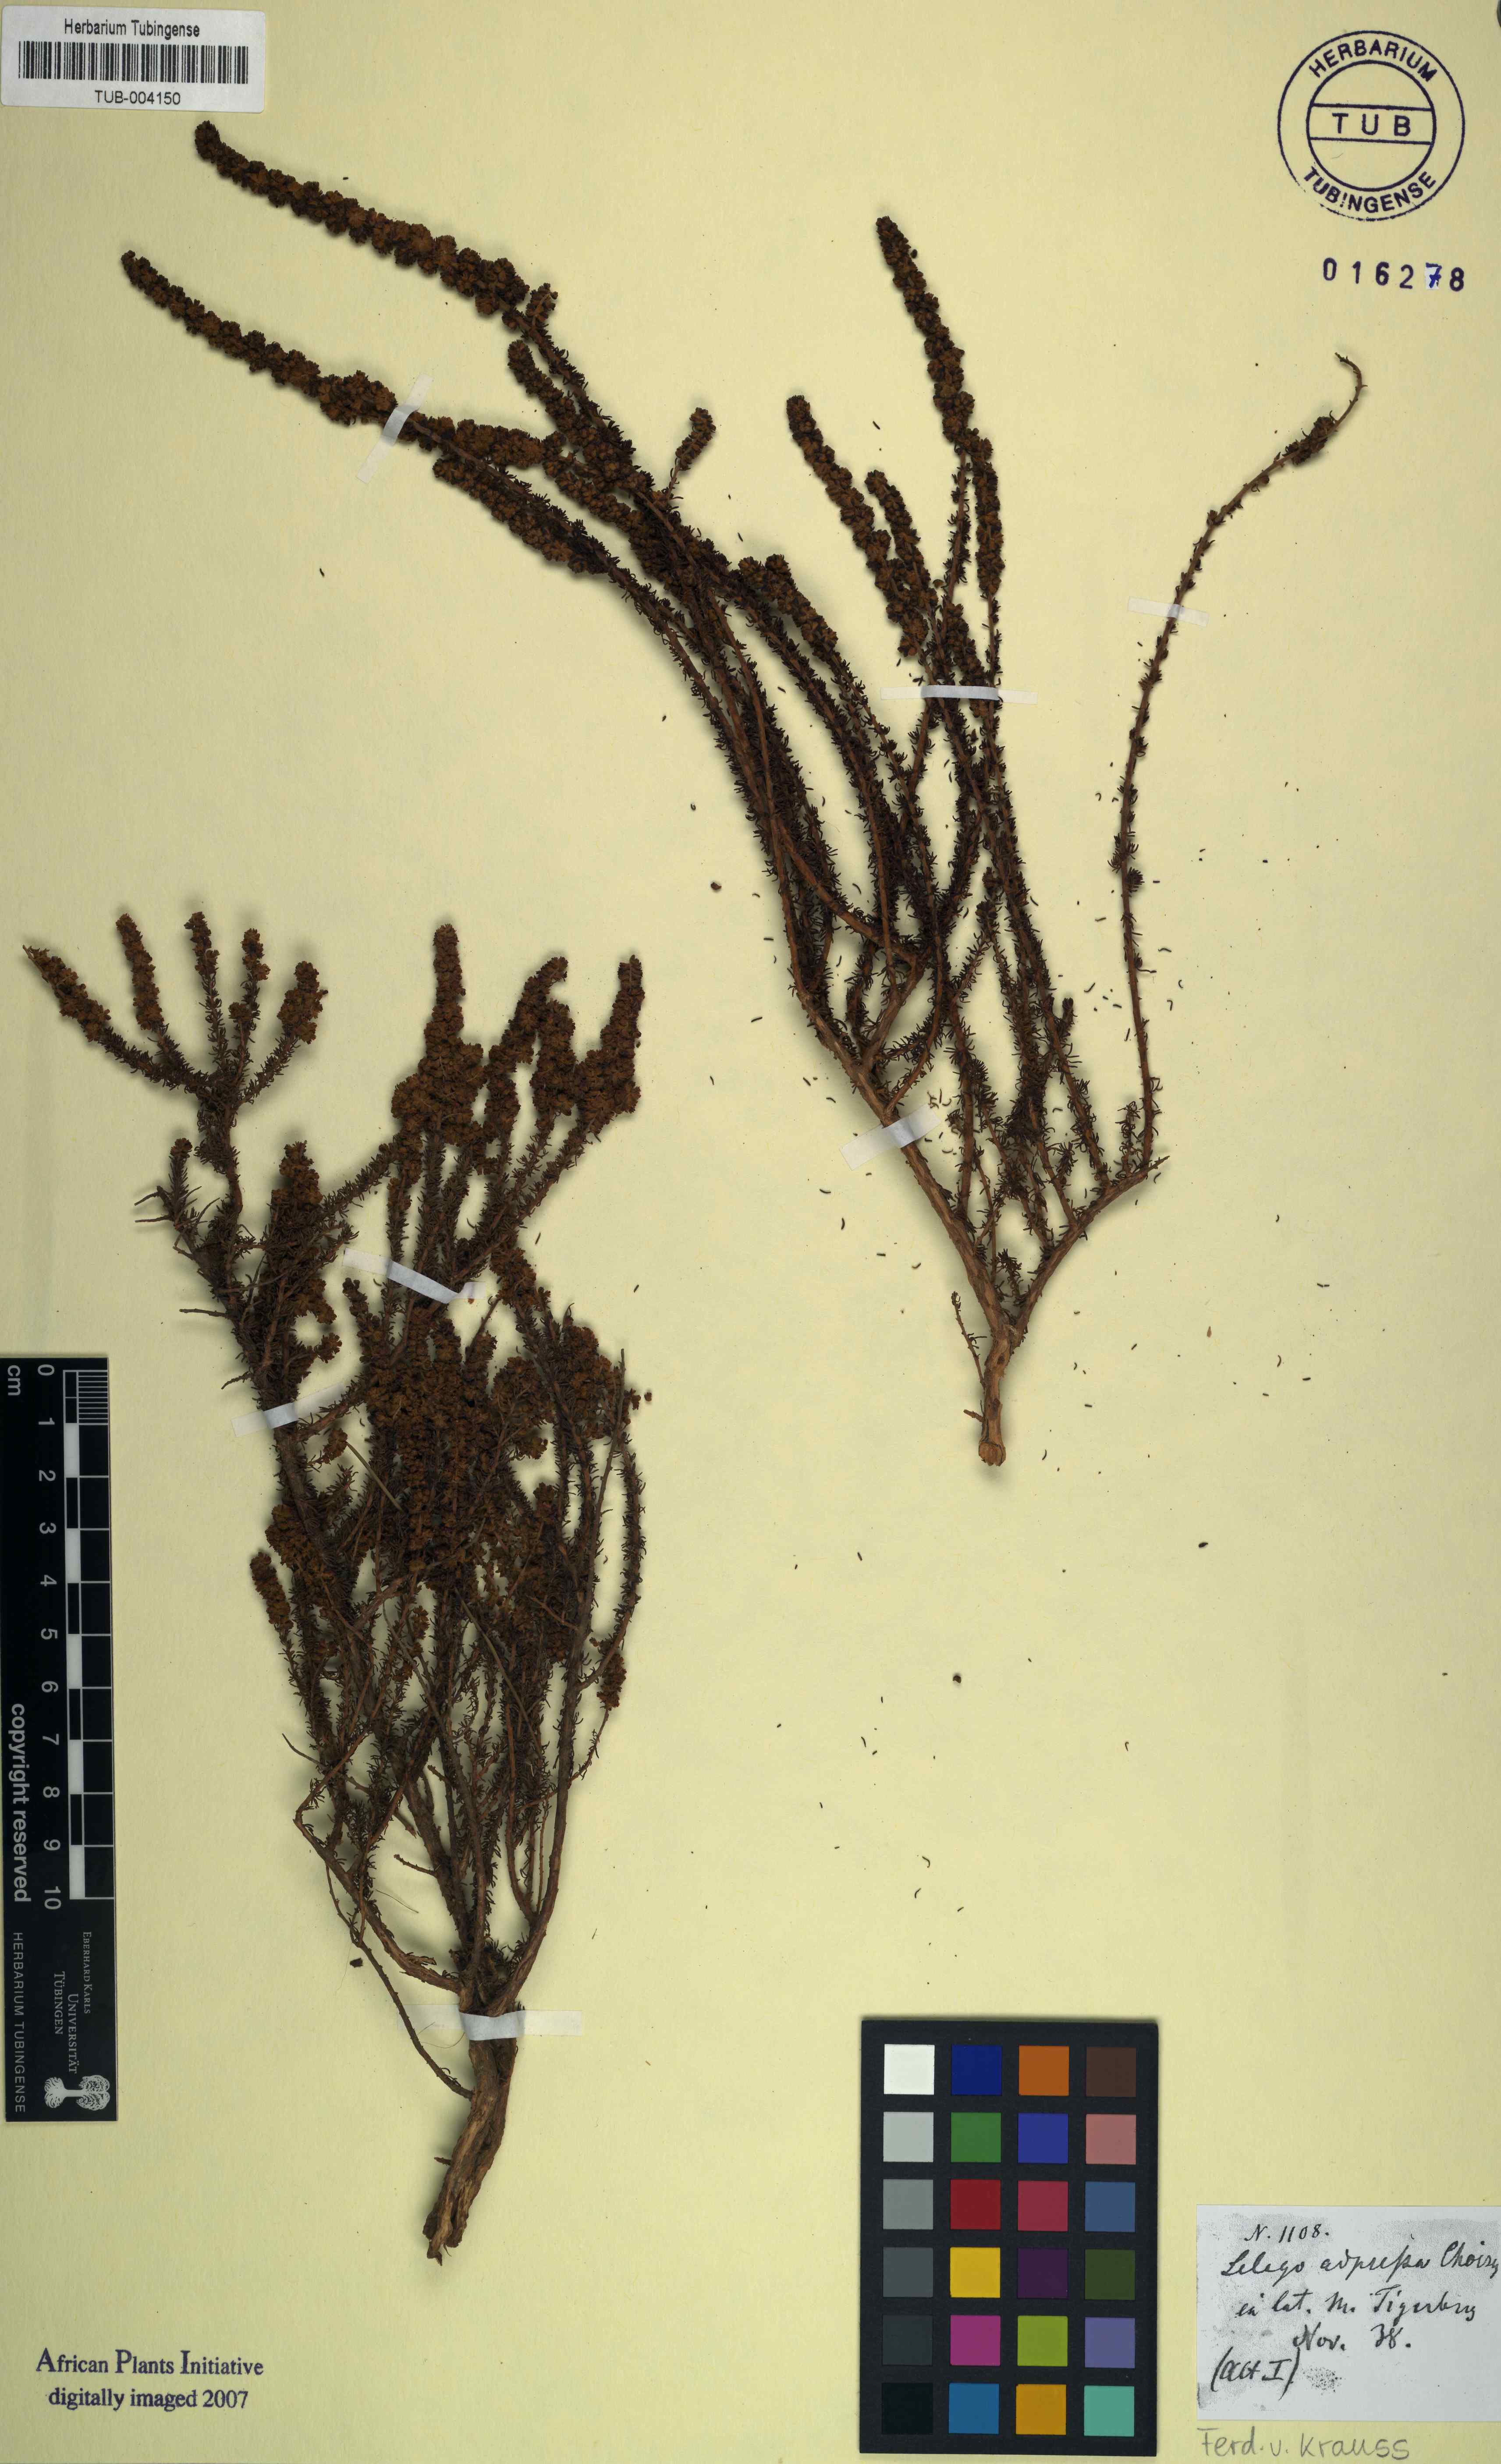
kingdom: Plantae
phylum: Tracheophyta
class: Magnoliopsida
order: Lamiales
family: Scrophulariaceae
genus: Globulariopsis
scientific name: Globulariopsis adpressa
